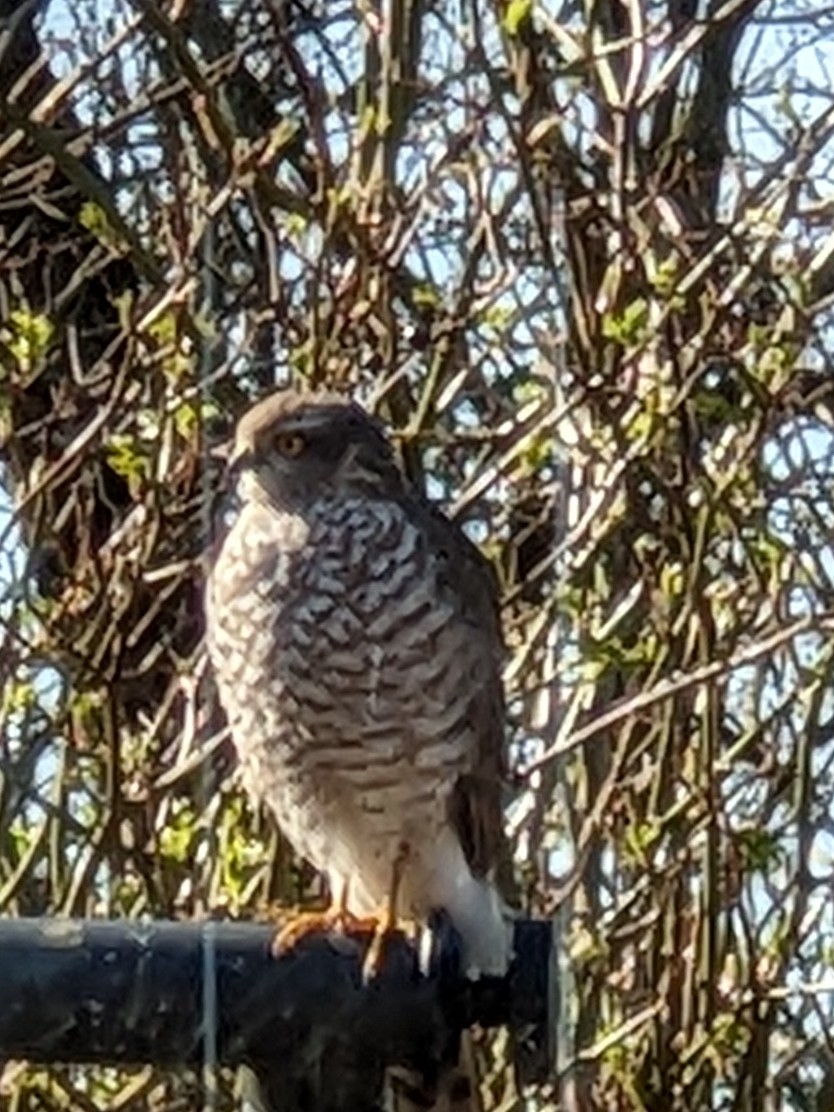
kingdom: Animalia
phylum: Chordata
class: Aves
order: Accipitriformes
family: Accipitridae
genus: Accipiter
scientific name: Accipiter nisus
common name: Spurvehøg
